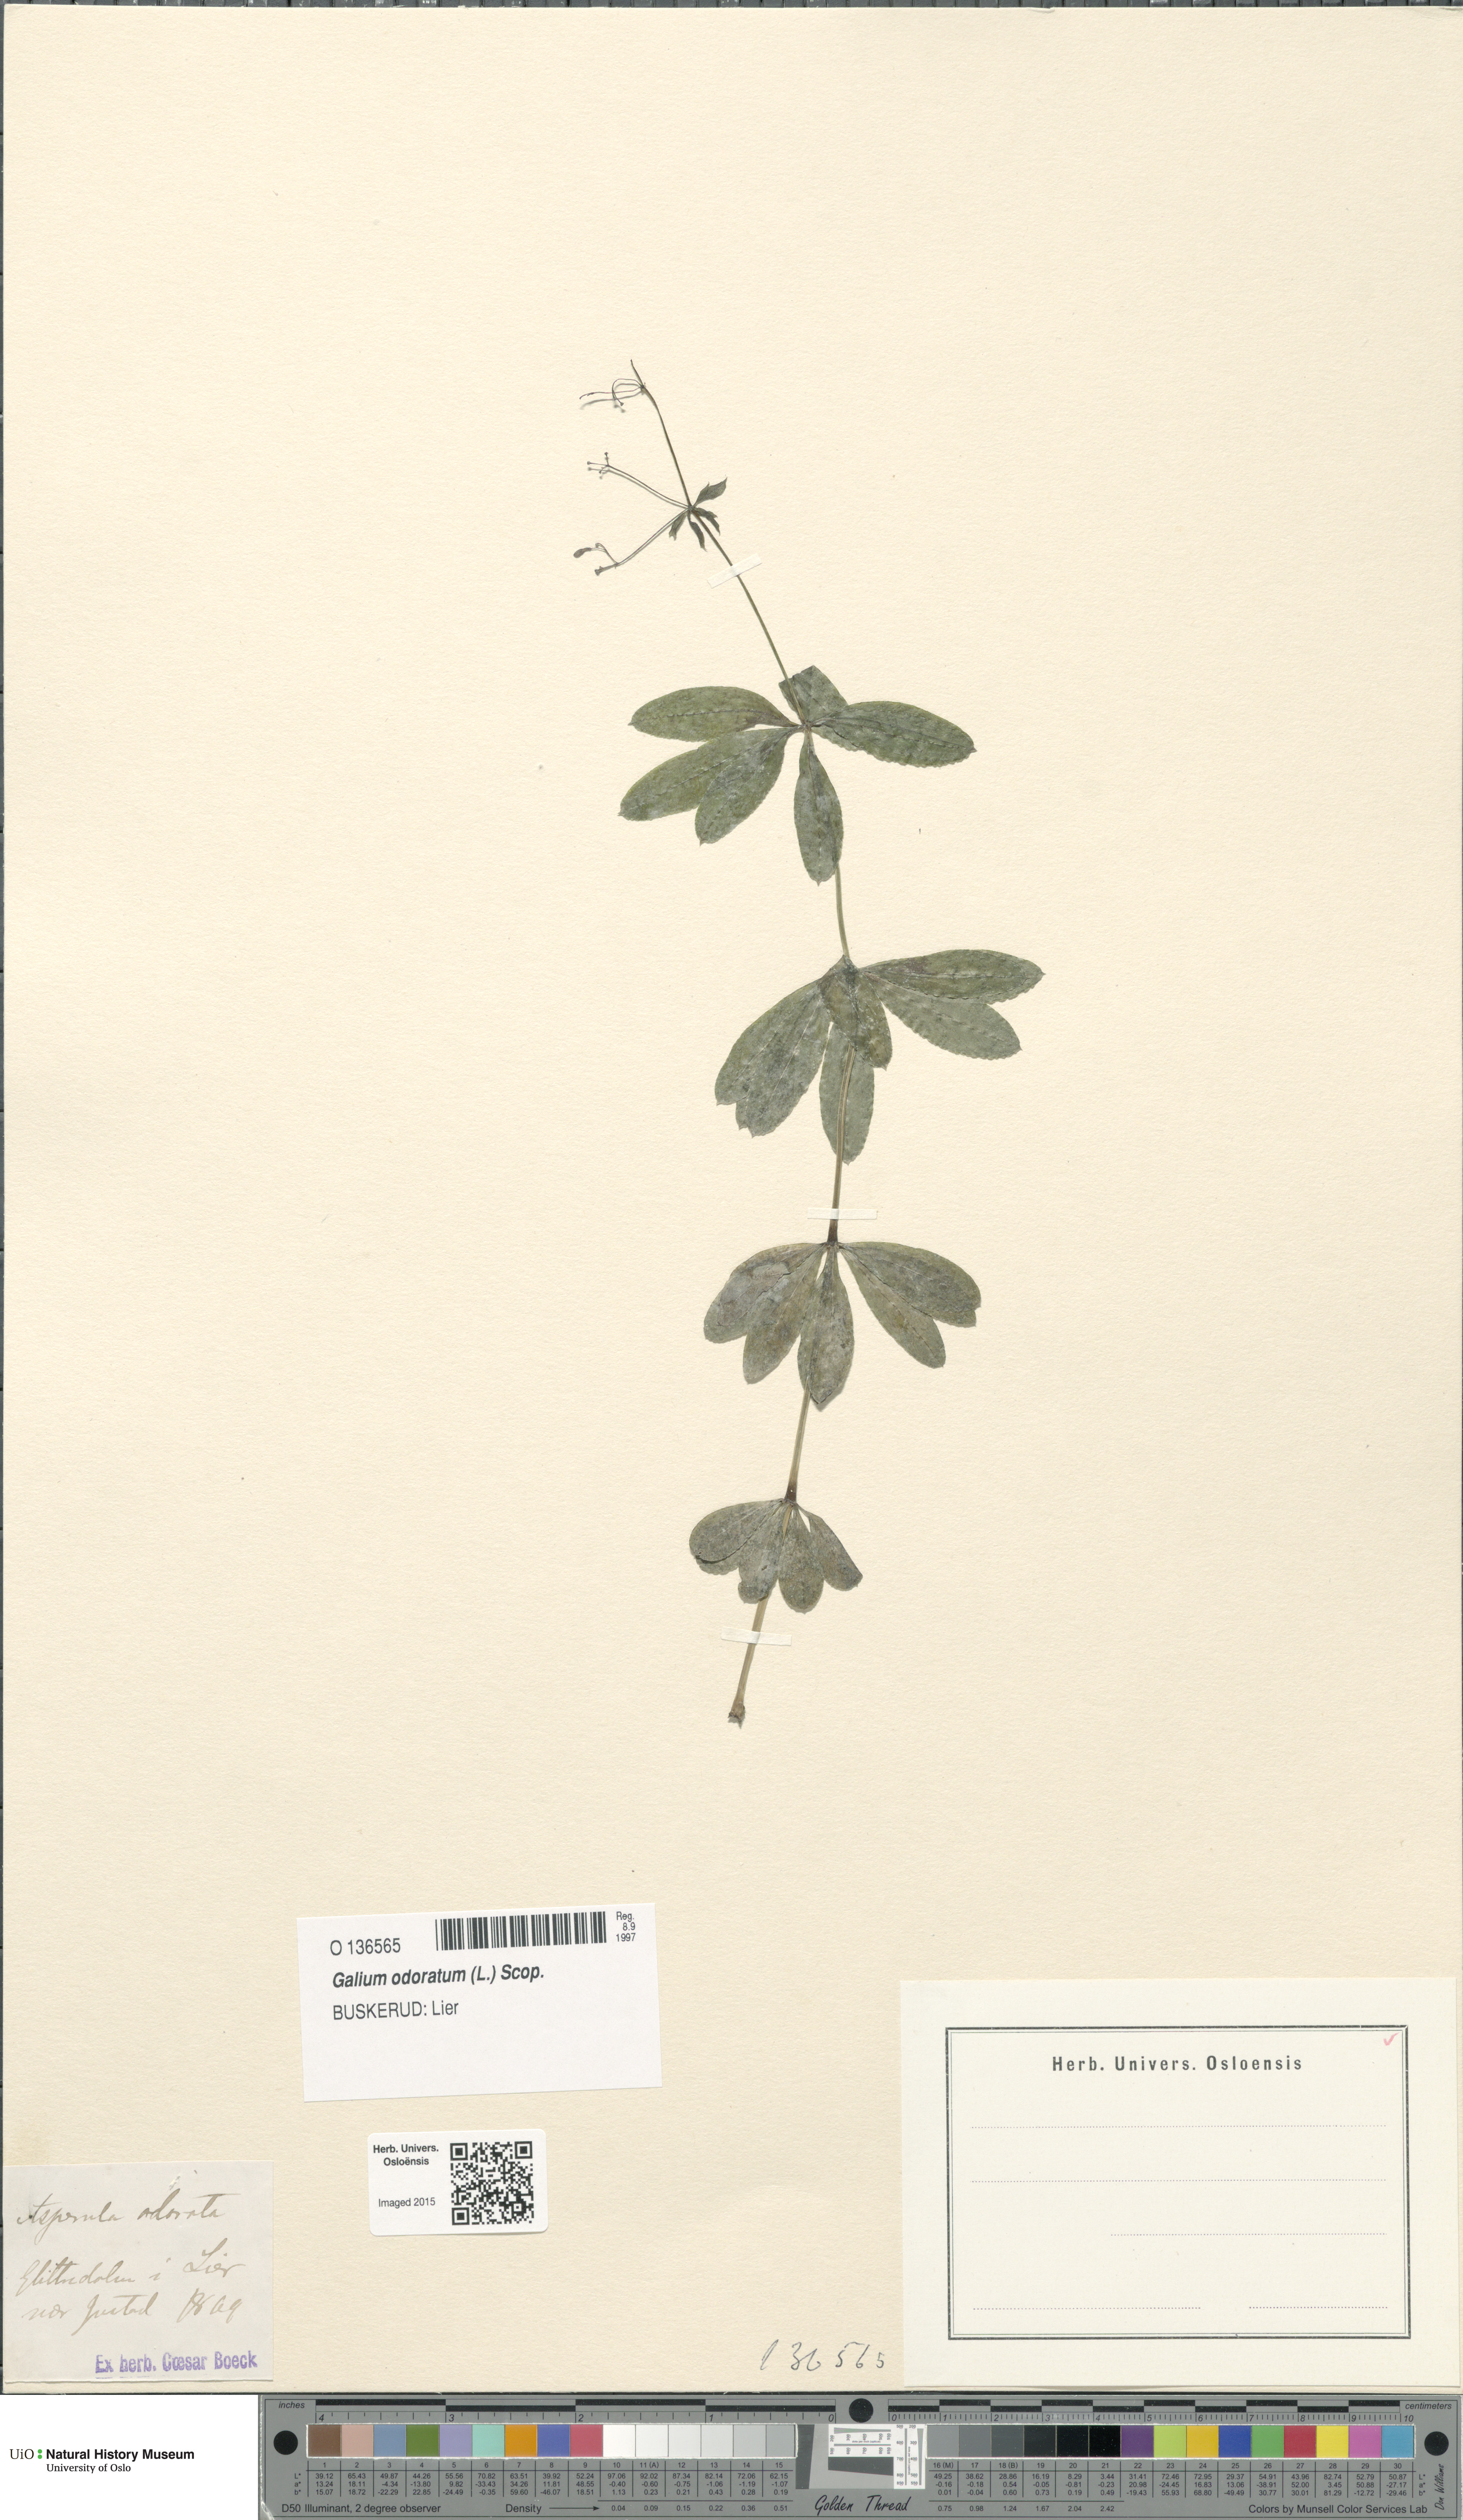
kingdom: Plantae
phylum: Tracheophyta
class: Magnoliopsida
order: Gentianales
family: Rubiaceae
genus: Galium
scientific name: Galium odoratum
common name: Sweet woodruff
